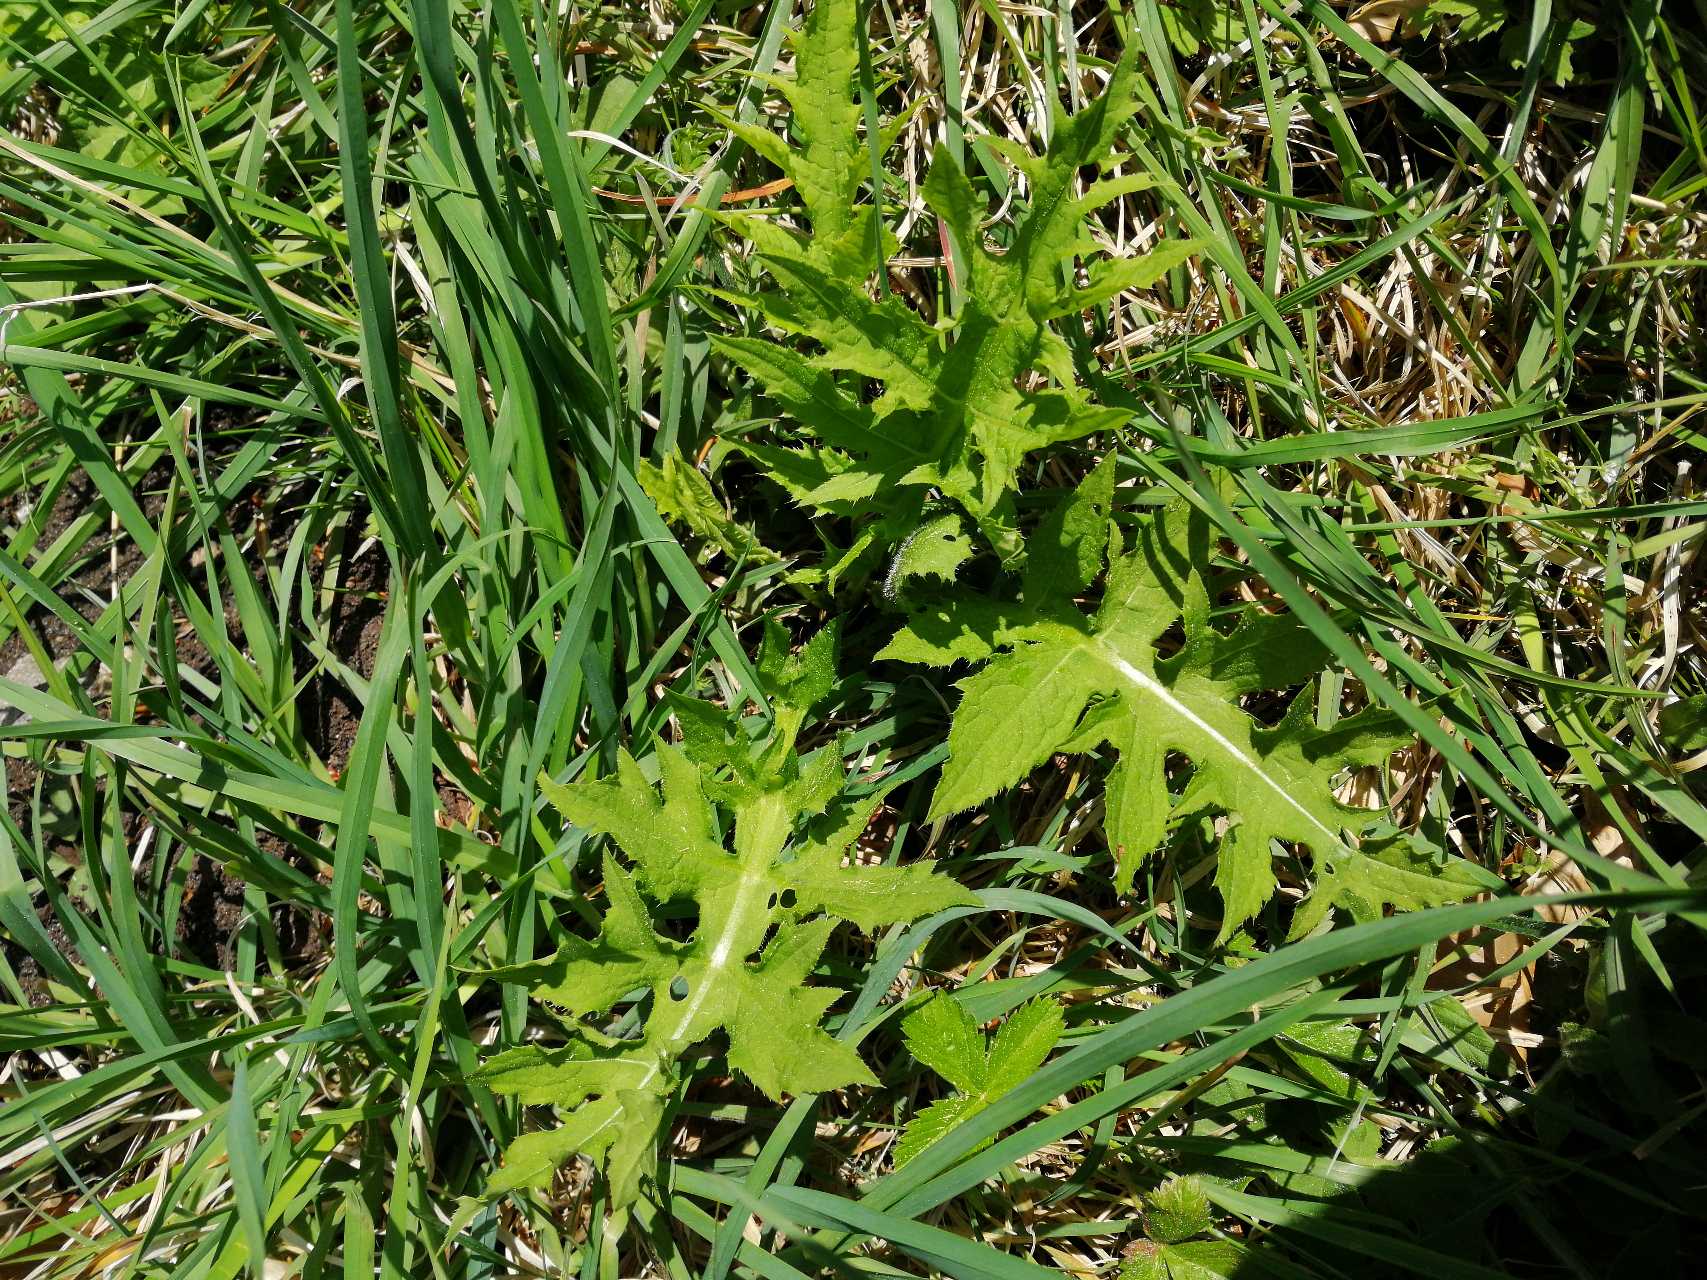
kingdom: Plantae
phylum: Tracheophyta
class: Magnoliopsida
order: Asterales
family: Asteraceae
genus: Cirsium
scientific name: Cirsium oleraceum
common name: Kål-tidsel
